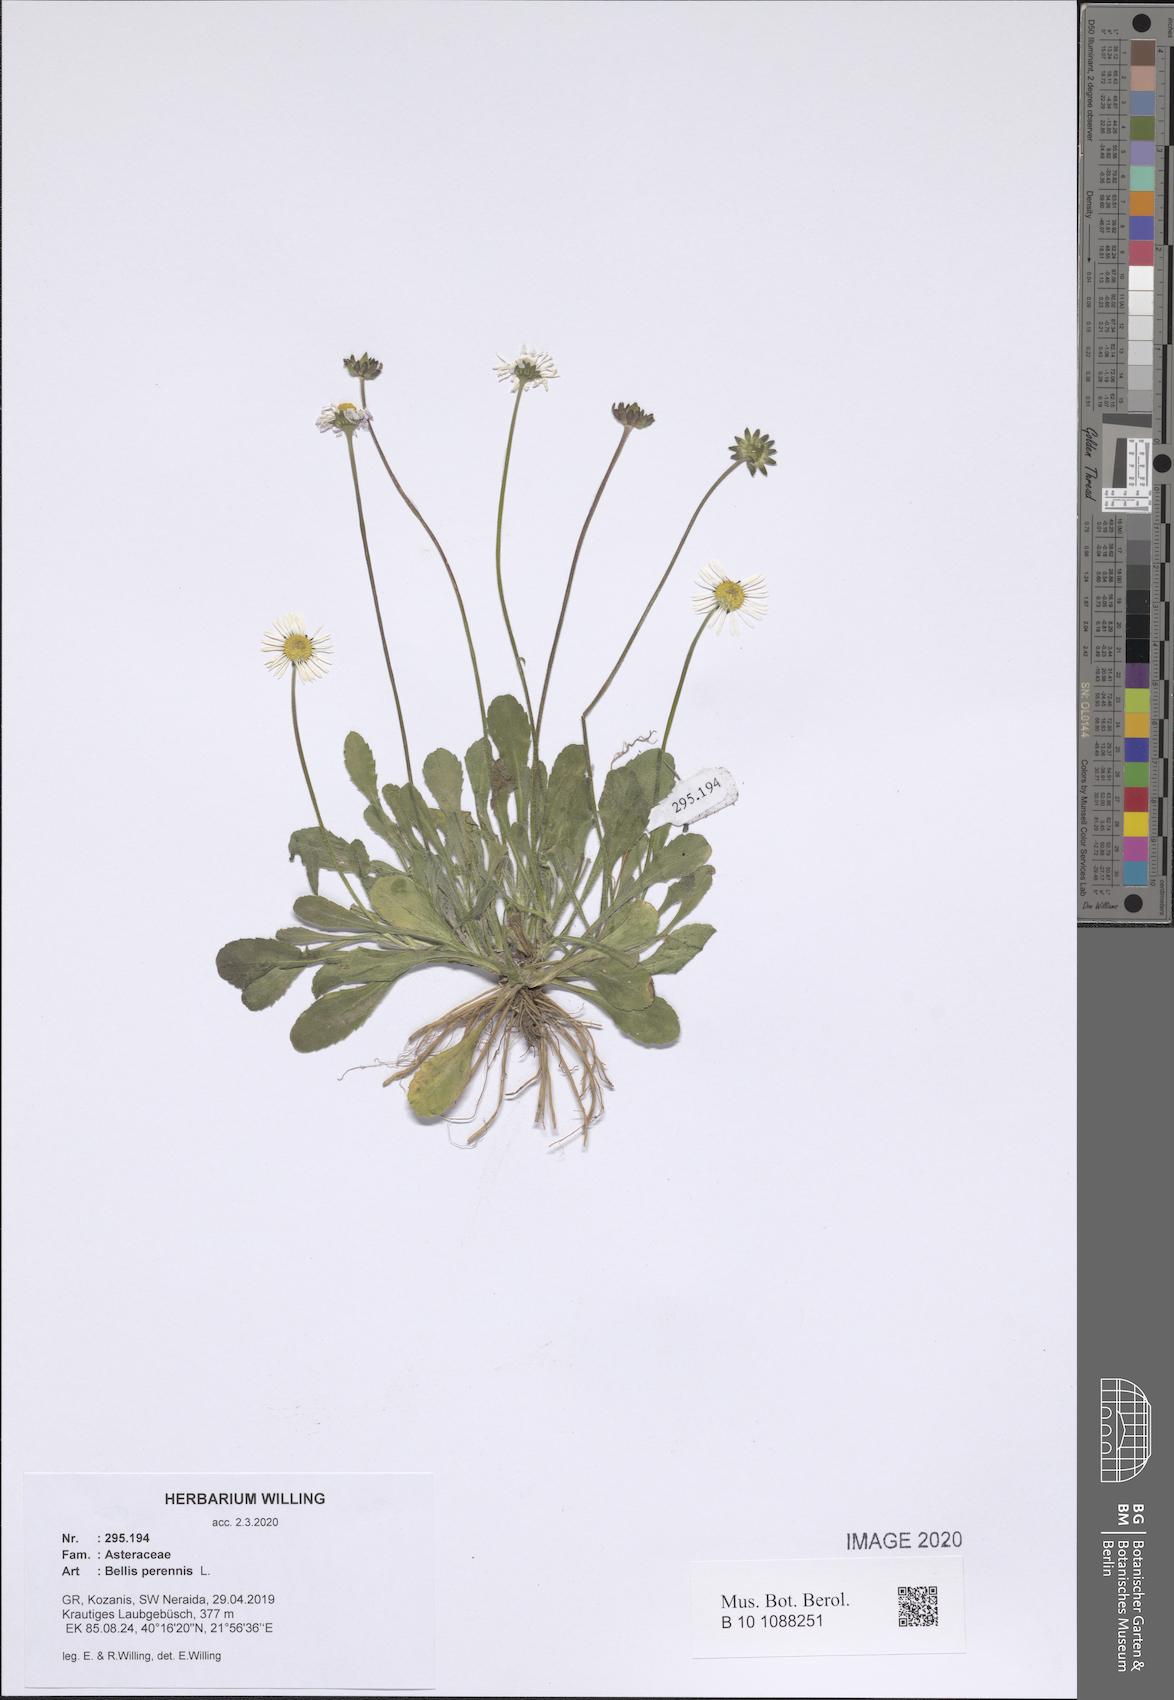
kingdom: Plantae
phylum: Tracheophyta
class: Magnoliopsida
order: Asterales
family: Asteraceae
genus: Bellis
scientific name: Bellis perennis
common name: Lawndaisy
